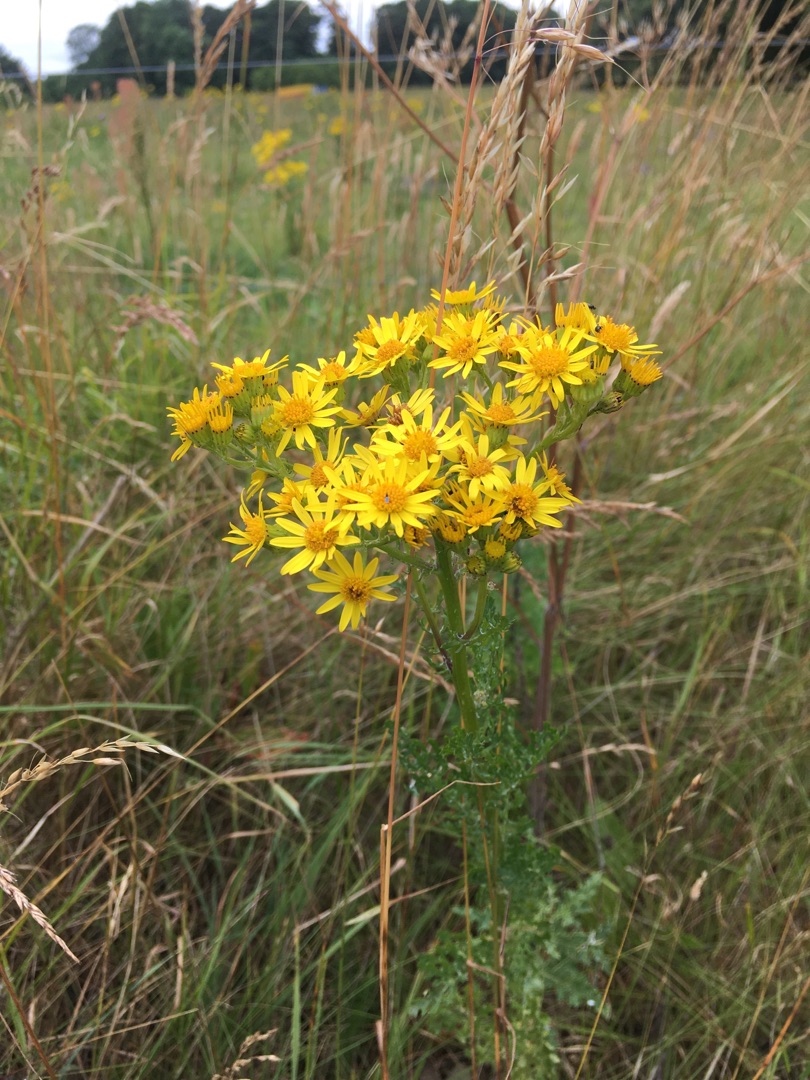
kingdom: Plantae
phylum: Tracheophyta
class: Magnoliopsida
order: Asterales
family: Asteraceae
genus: Jacobaea
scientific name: Jacobaea vulgaris
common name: Eng-brandbæger
